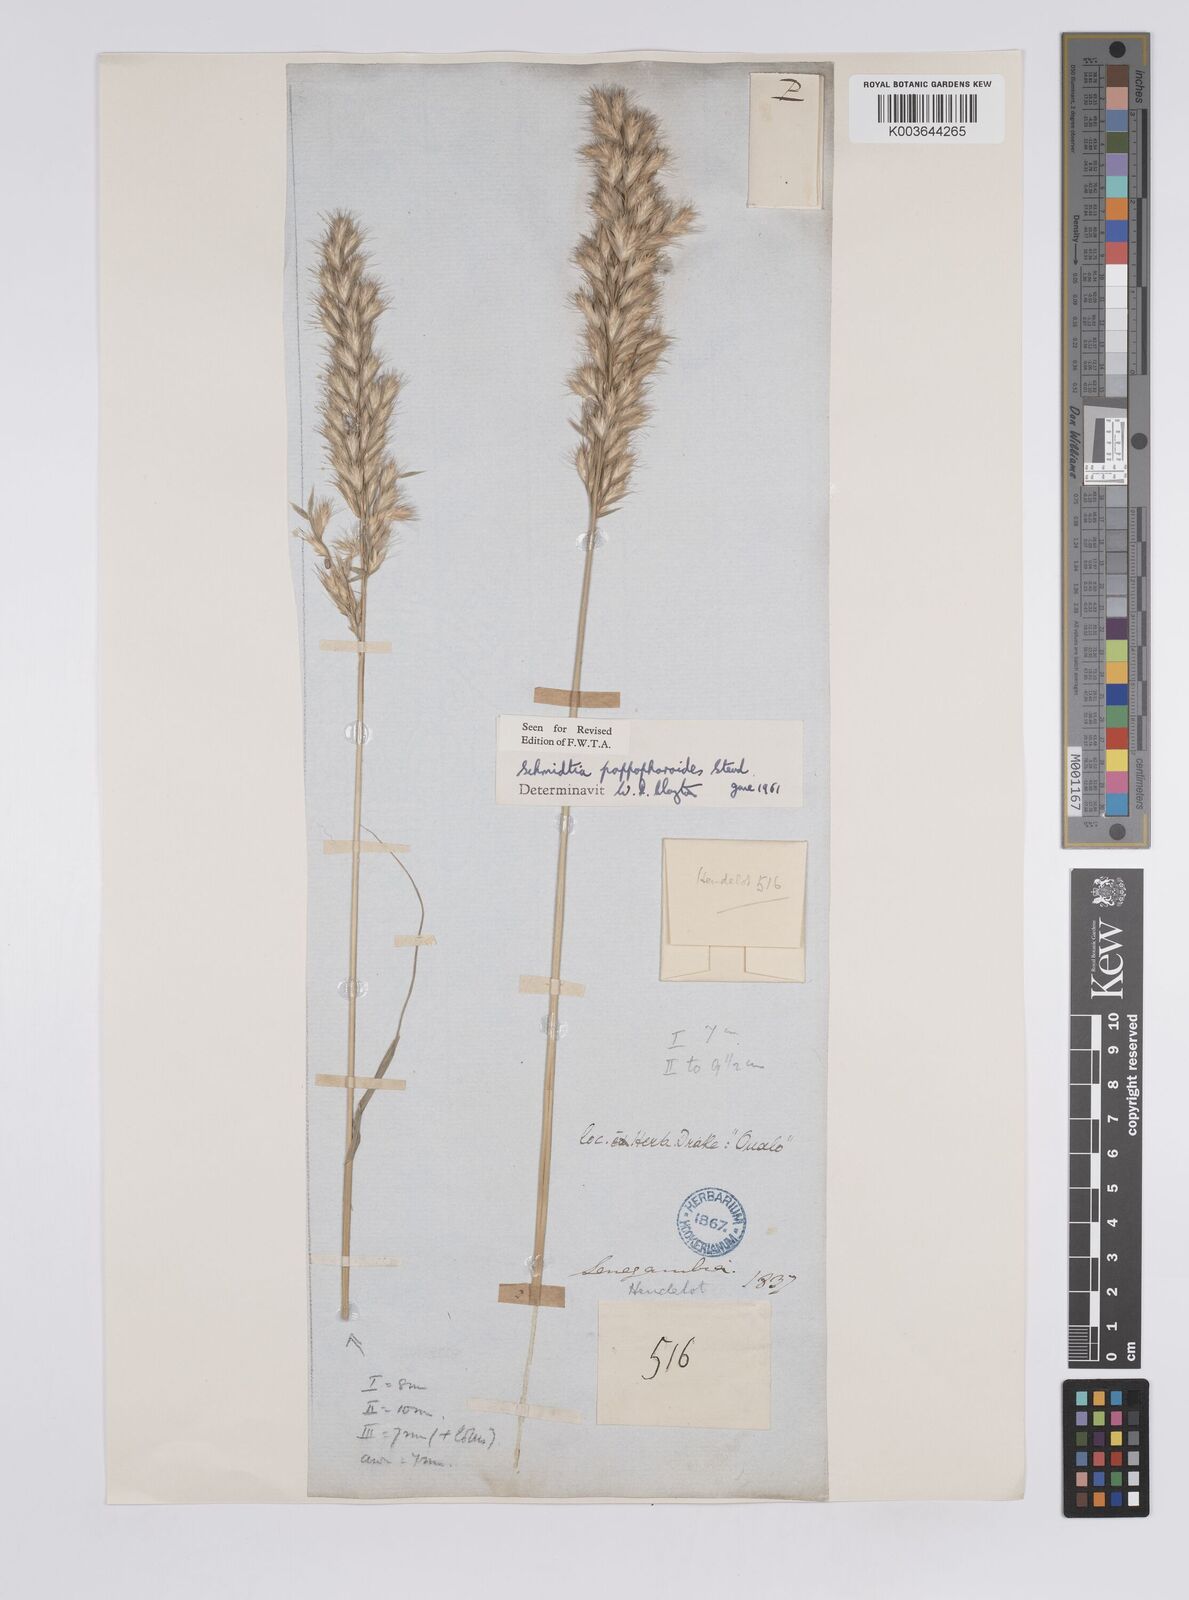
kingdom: Plantae
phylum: Tracheophyta
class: Liliopsida
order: Poales
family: Poaceae
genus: Schmidtia
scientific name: Schmidtia pappophoroides
